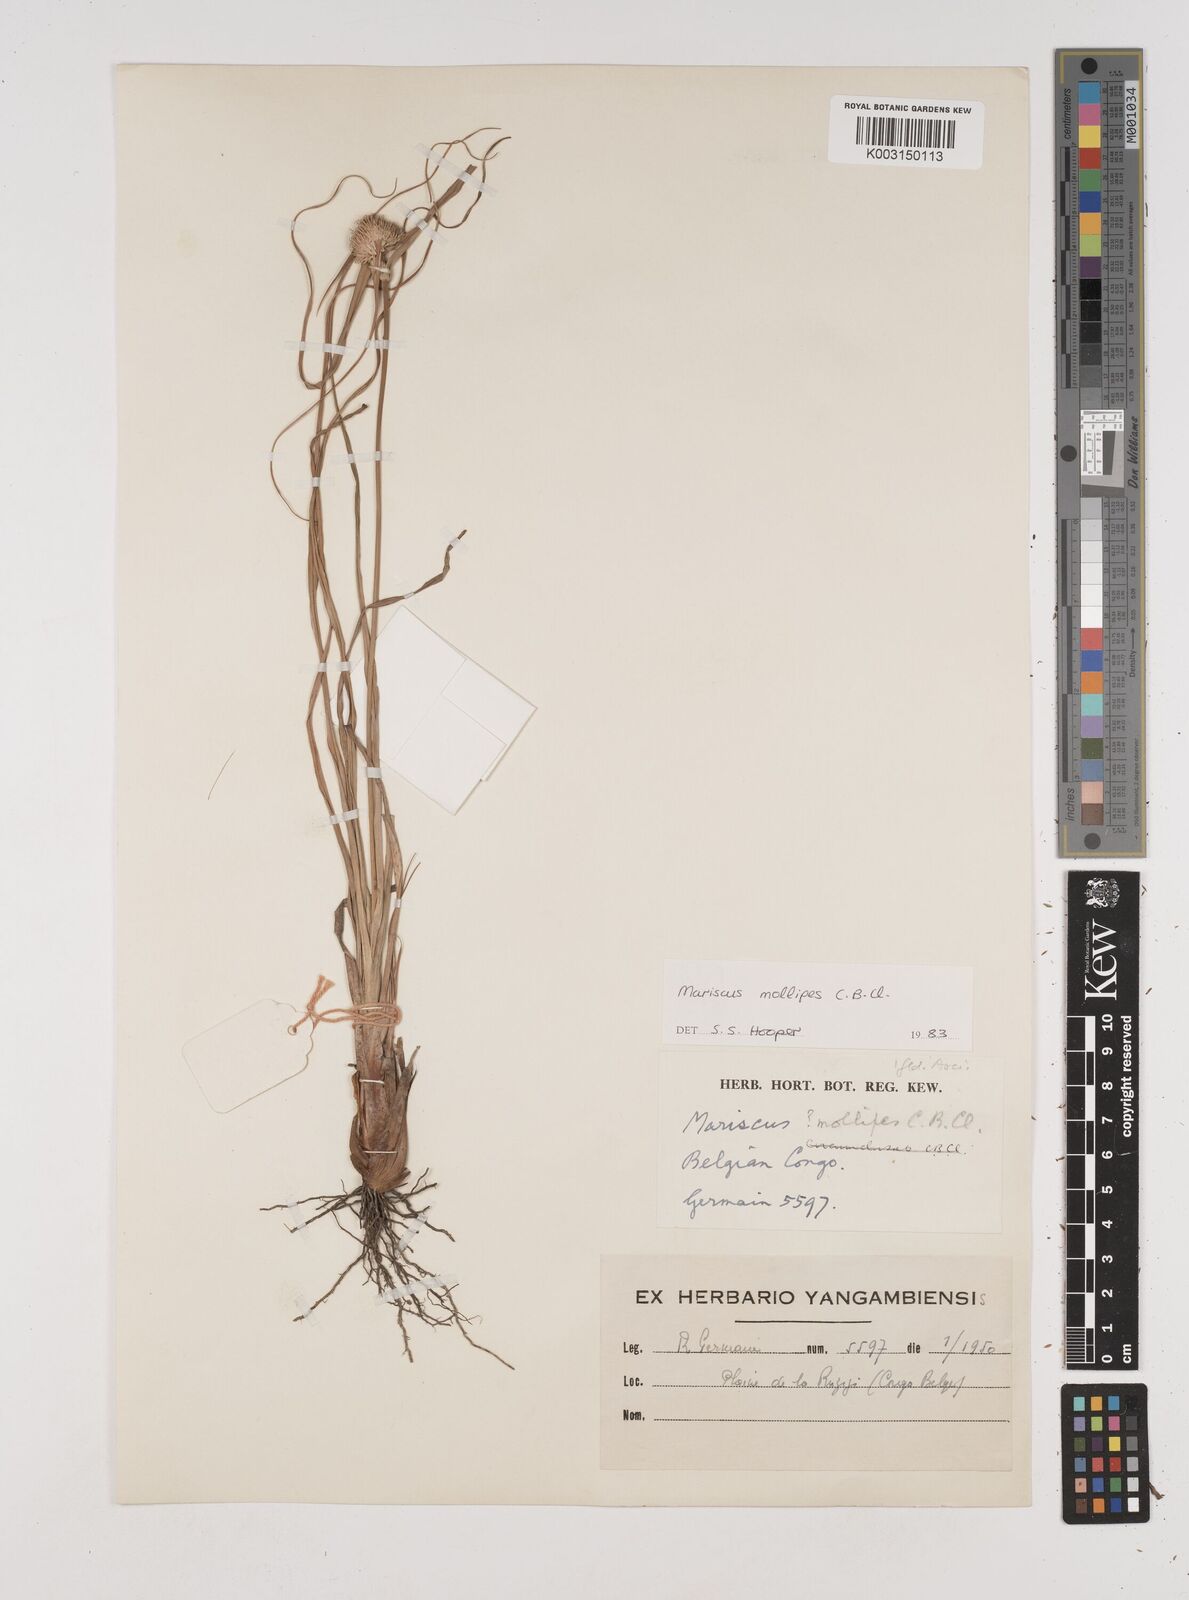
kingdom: Plantae
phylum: Tracheophyta
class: Liliopsida
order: Poales
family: Cyperaceae
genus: Cyperus
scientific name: Cyperus mollipes
